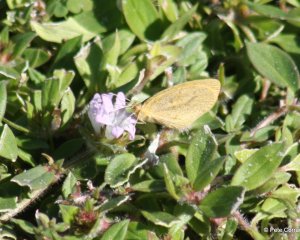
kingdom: Animalia
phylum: Arthropoda
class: Insecta
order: Lepidoptera
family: Pieridae
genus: Eurema
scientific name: Eurema daira
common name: Barred Yellow
